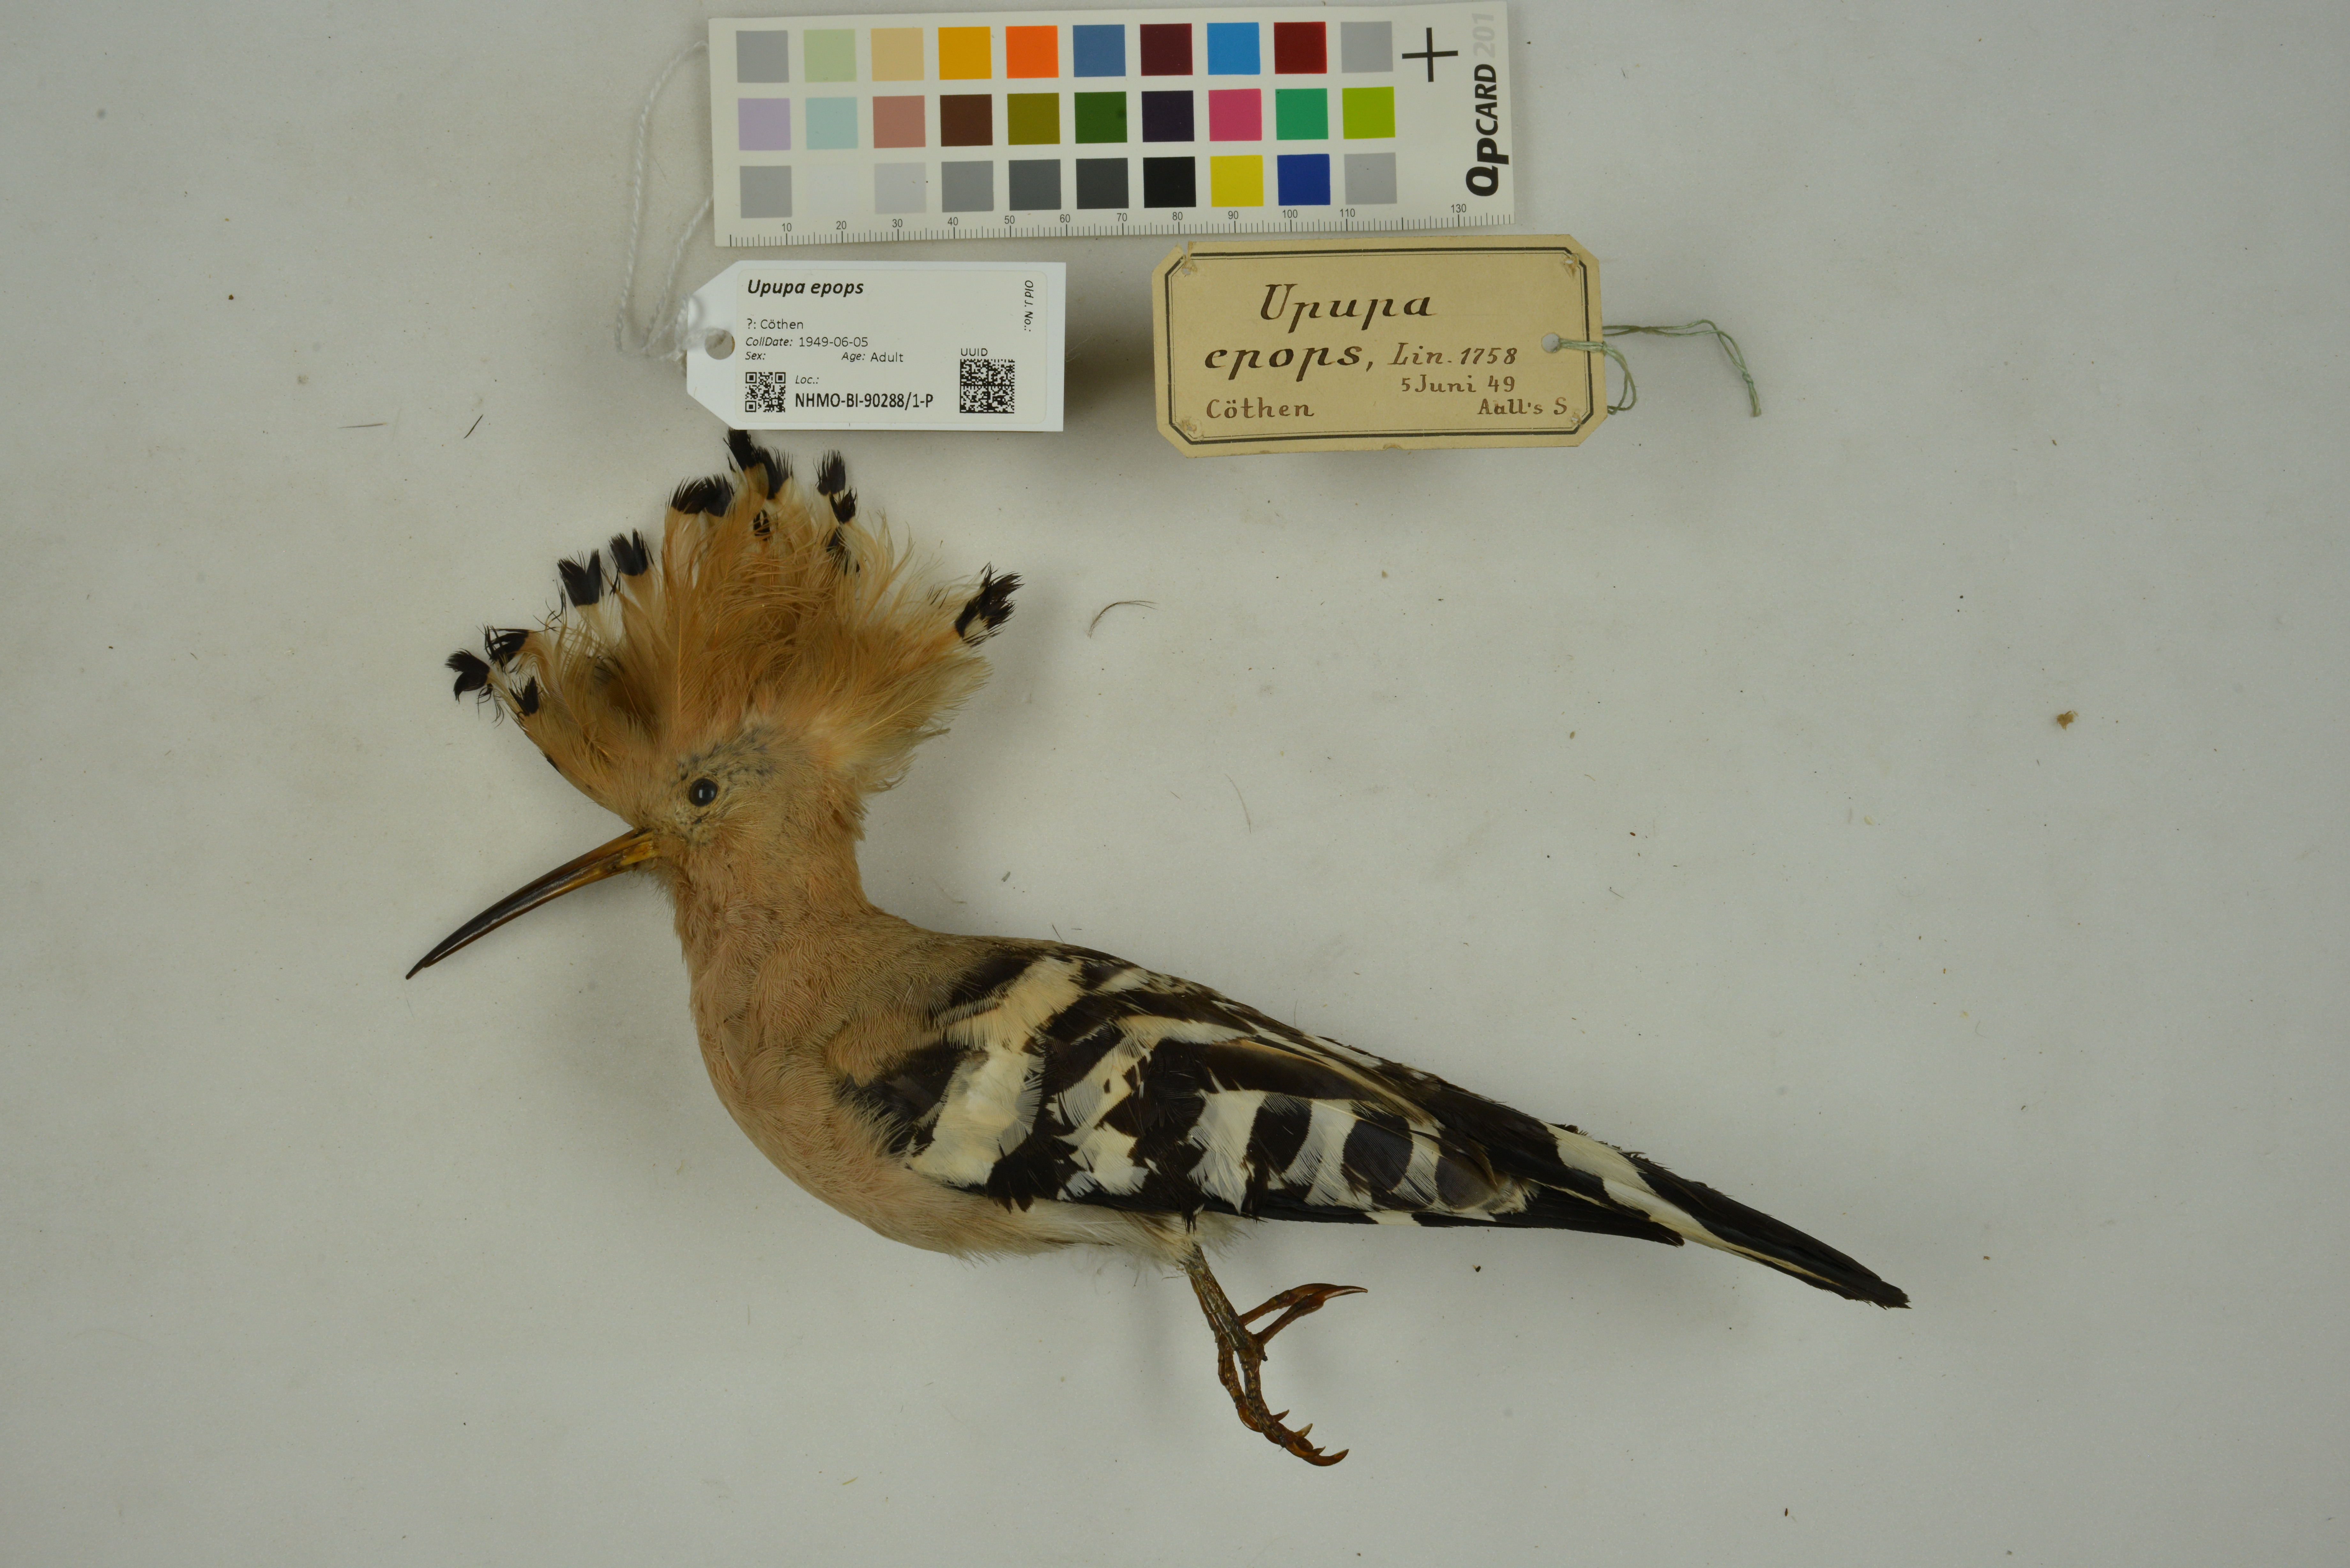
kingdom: Animalia
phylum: Chordata
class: Aves
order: Bucerotiformes
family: Upupidae
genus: Upupa
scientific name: Upupa epops
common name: Eurasian hoopoe
